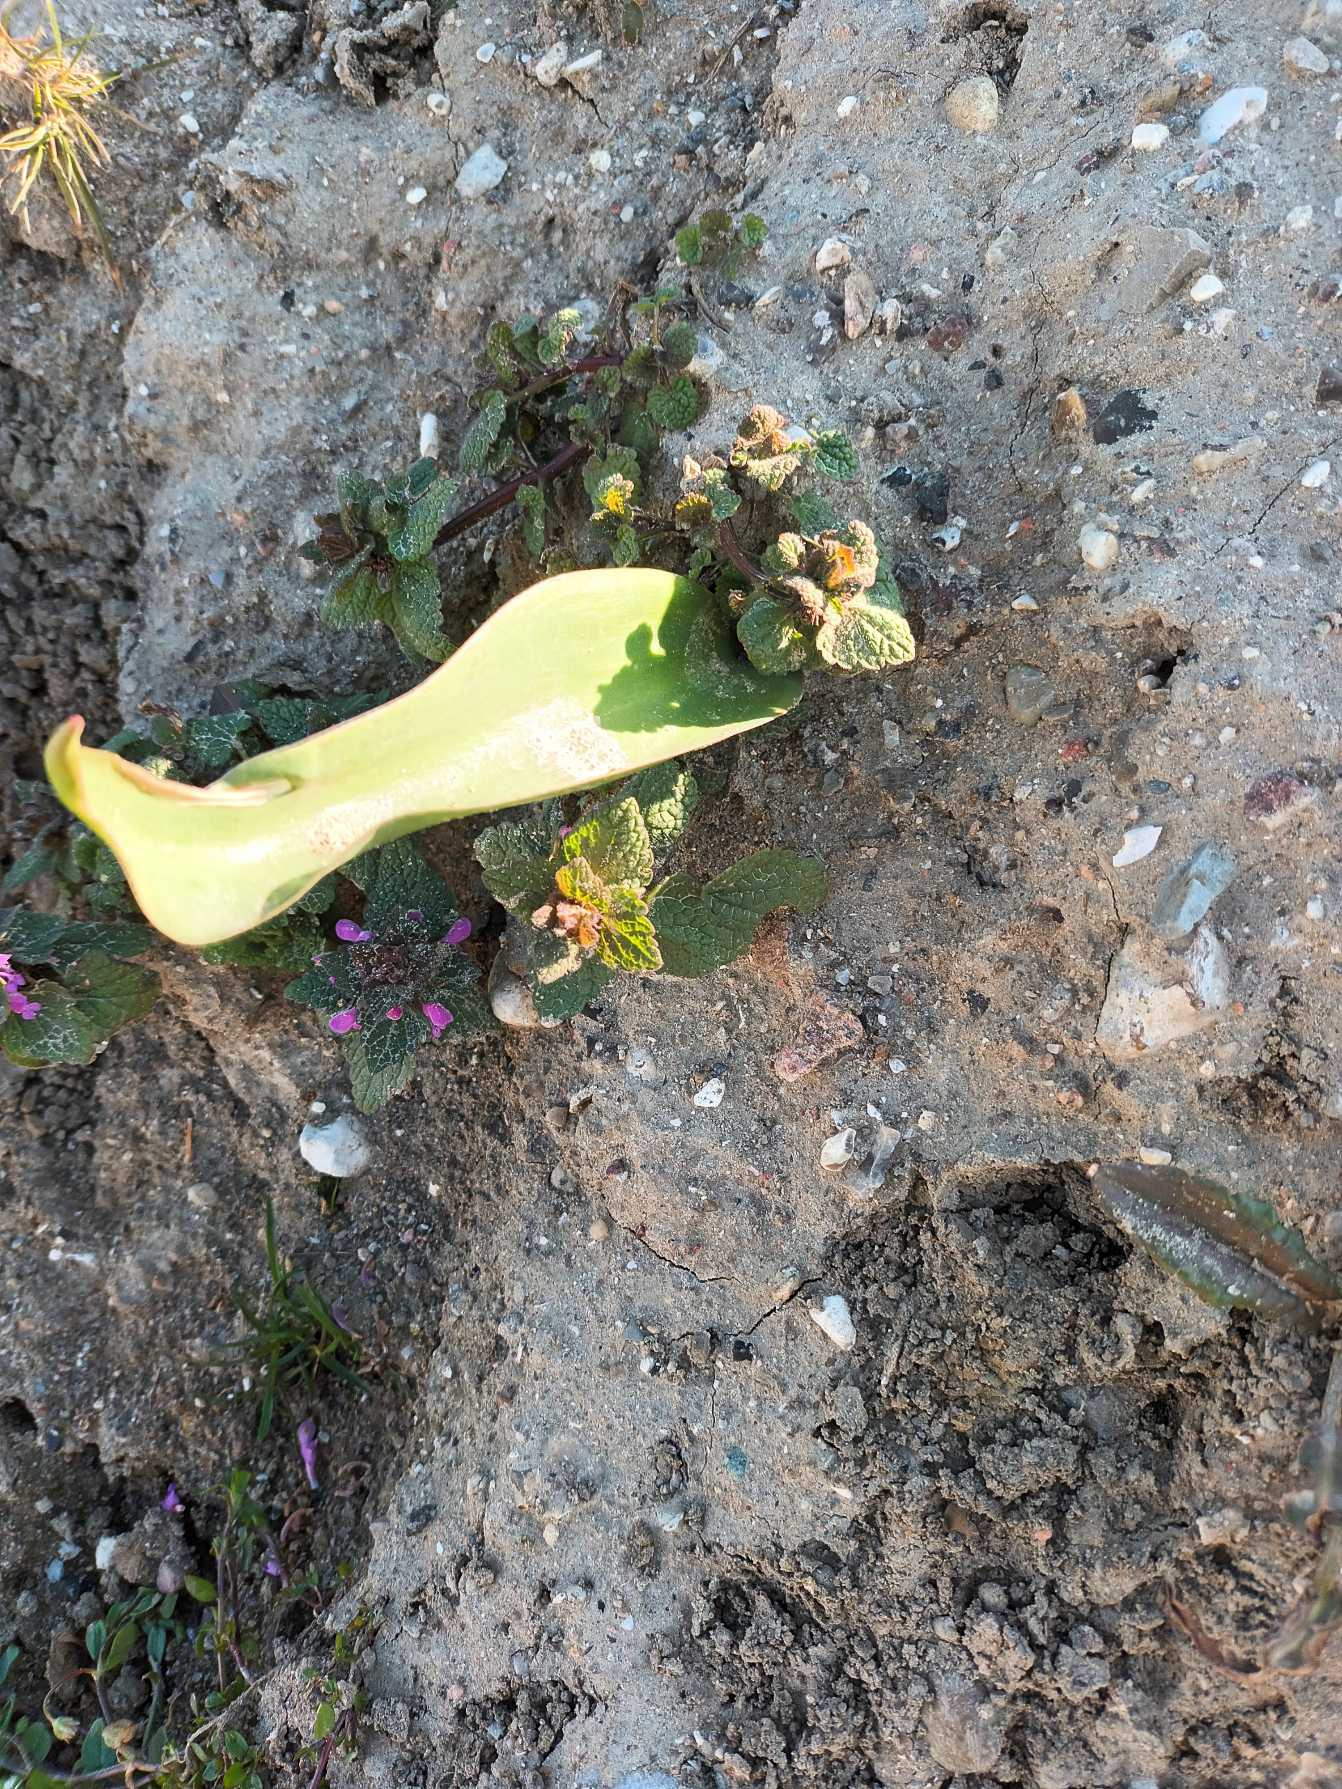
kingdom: Plantae
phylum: Tracheophyta
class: Liliopsida
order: Liliales
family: Liliaceae
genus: Tulipa
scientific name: Tulipa gesneriana
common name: Have-tulipan
